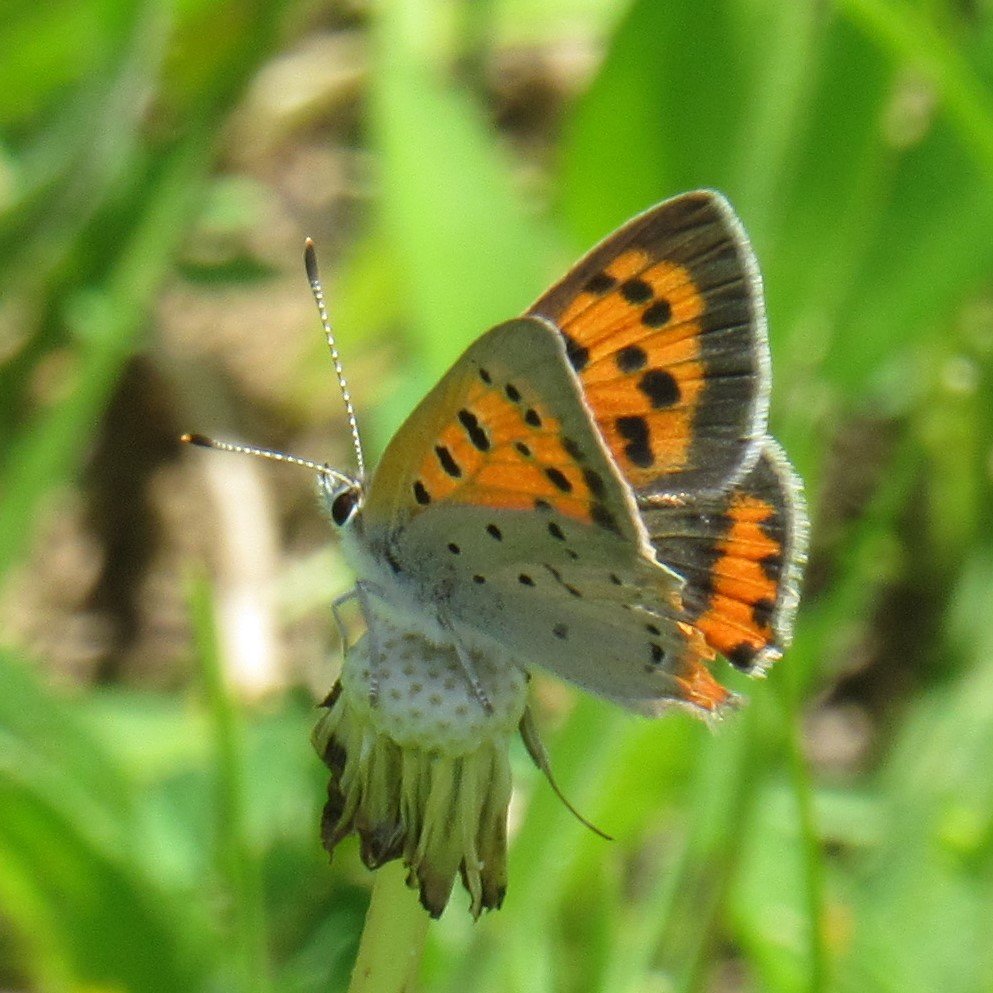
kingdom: Animalia
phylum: Arthropoda
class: Insecta
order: Lepidoptera
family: Lycaenidae
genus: Lycaena
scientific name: Lycaena phlaeas
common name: American Copper
